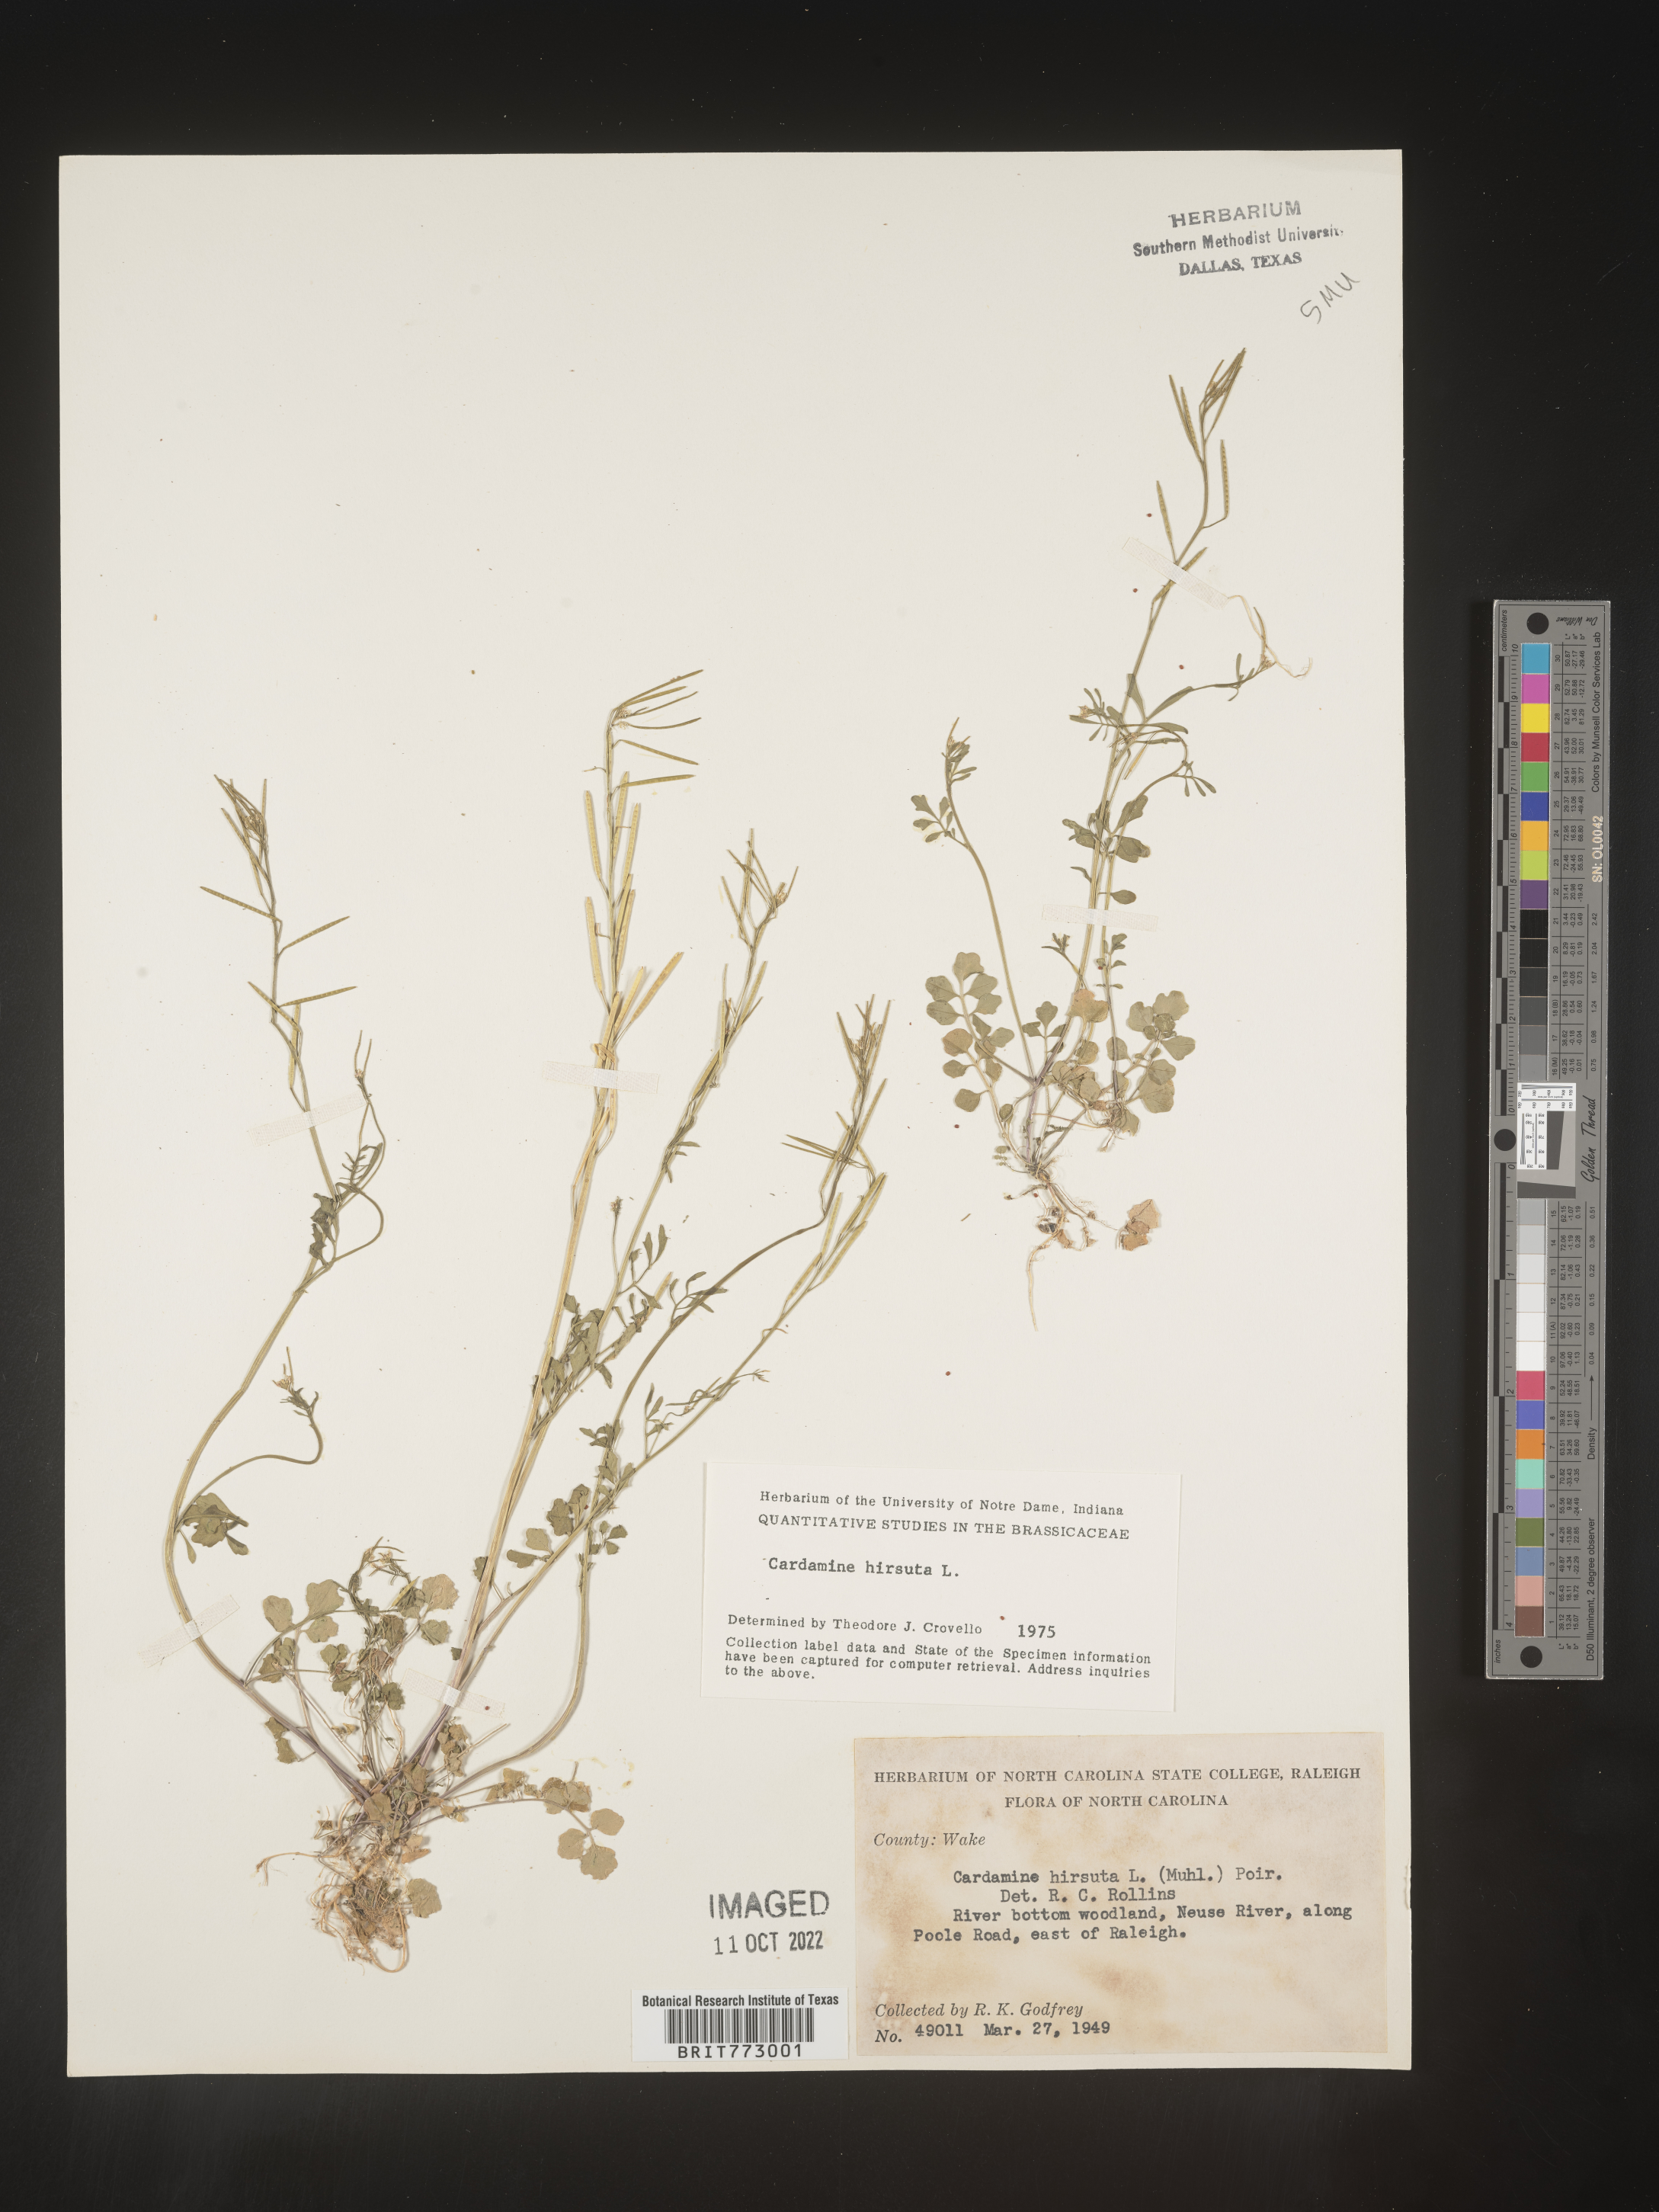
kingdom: Plantae
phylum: Tracheophyta
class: Magnoliopsida
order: Brassicales
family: Brassicaceae
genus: Cardamine
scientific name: Cardamine hirsuta
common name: Hairy bittercress
